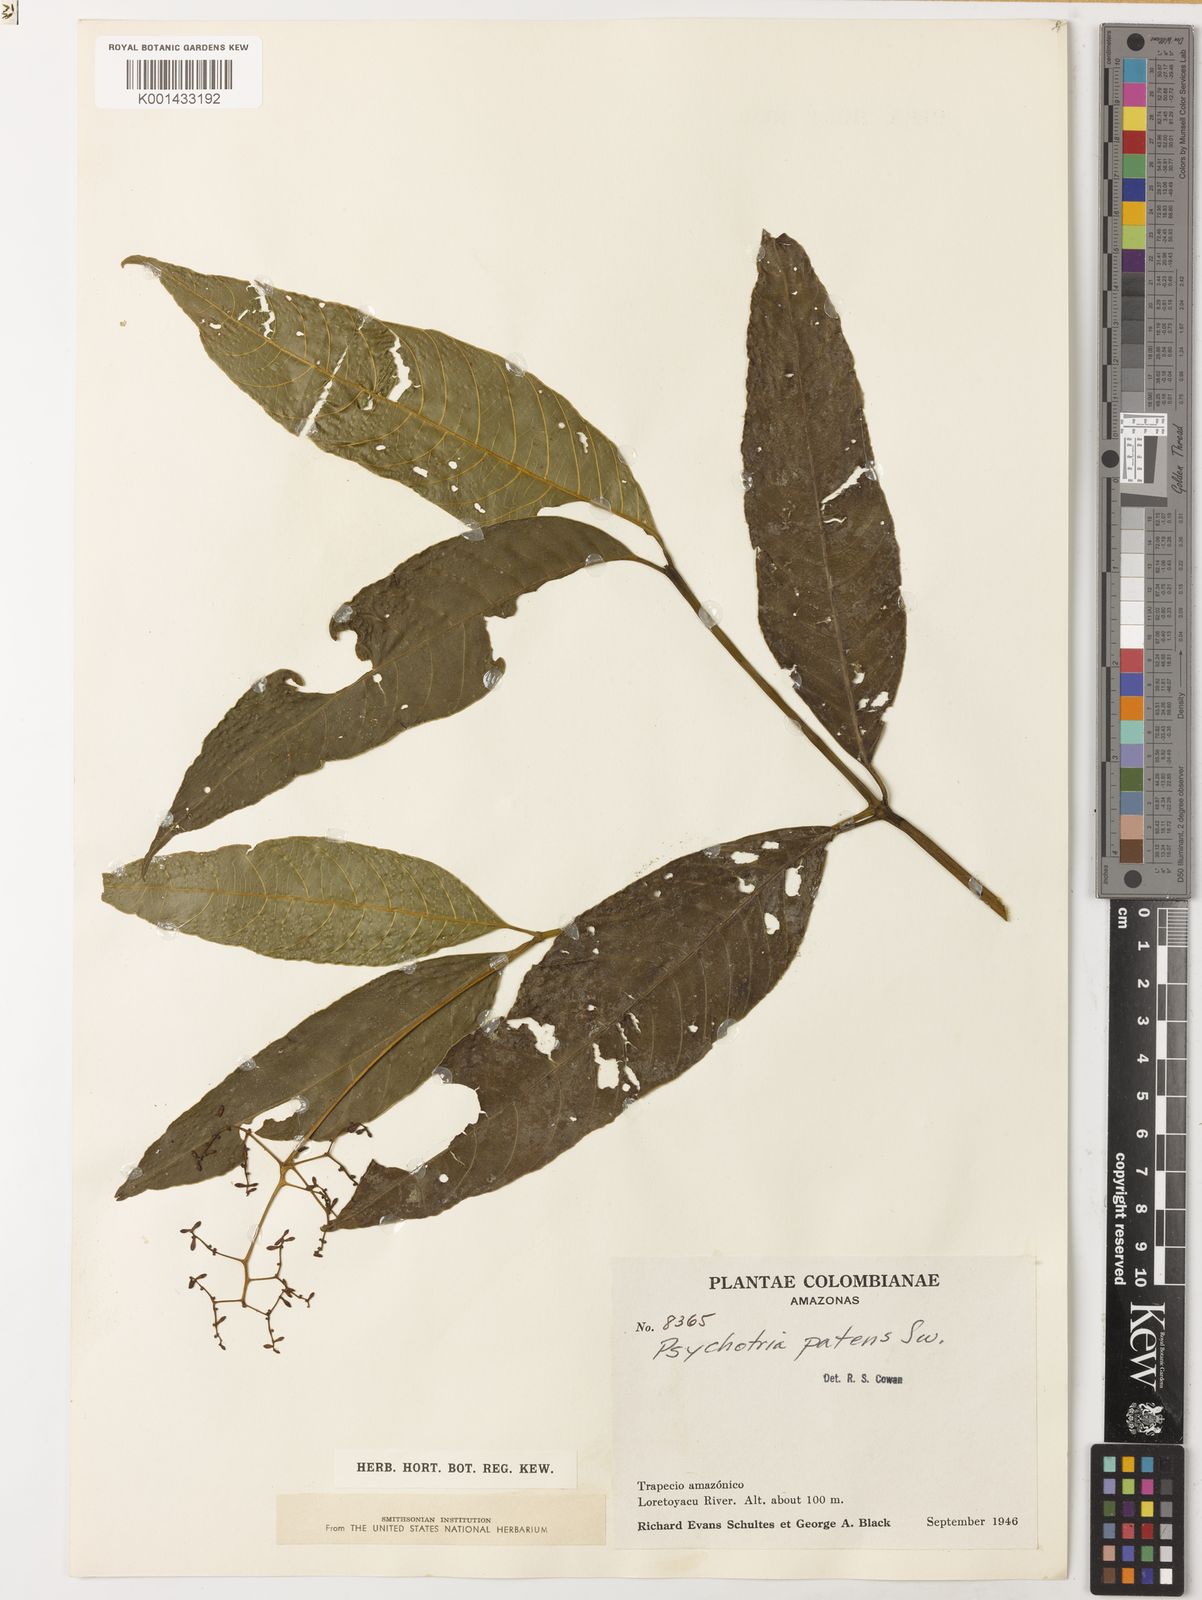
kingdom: Plantae
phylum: Tracheophyta
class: Magnoliopsida
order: Gentianales
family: Rubiaceae
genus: Palicourea
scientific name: Palicourea patens
